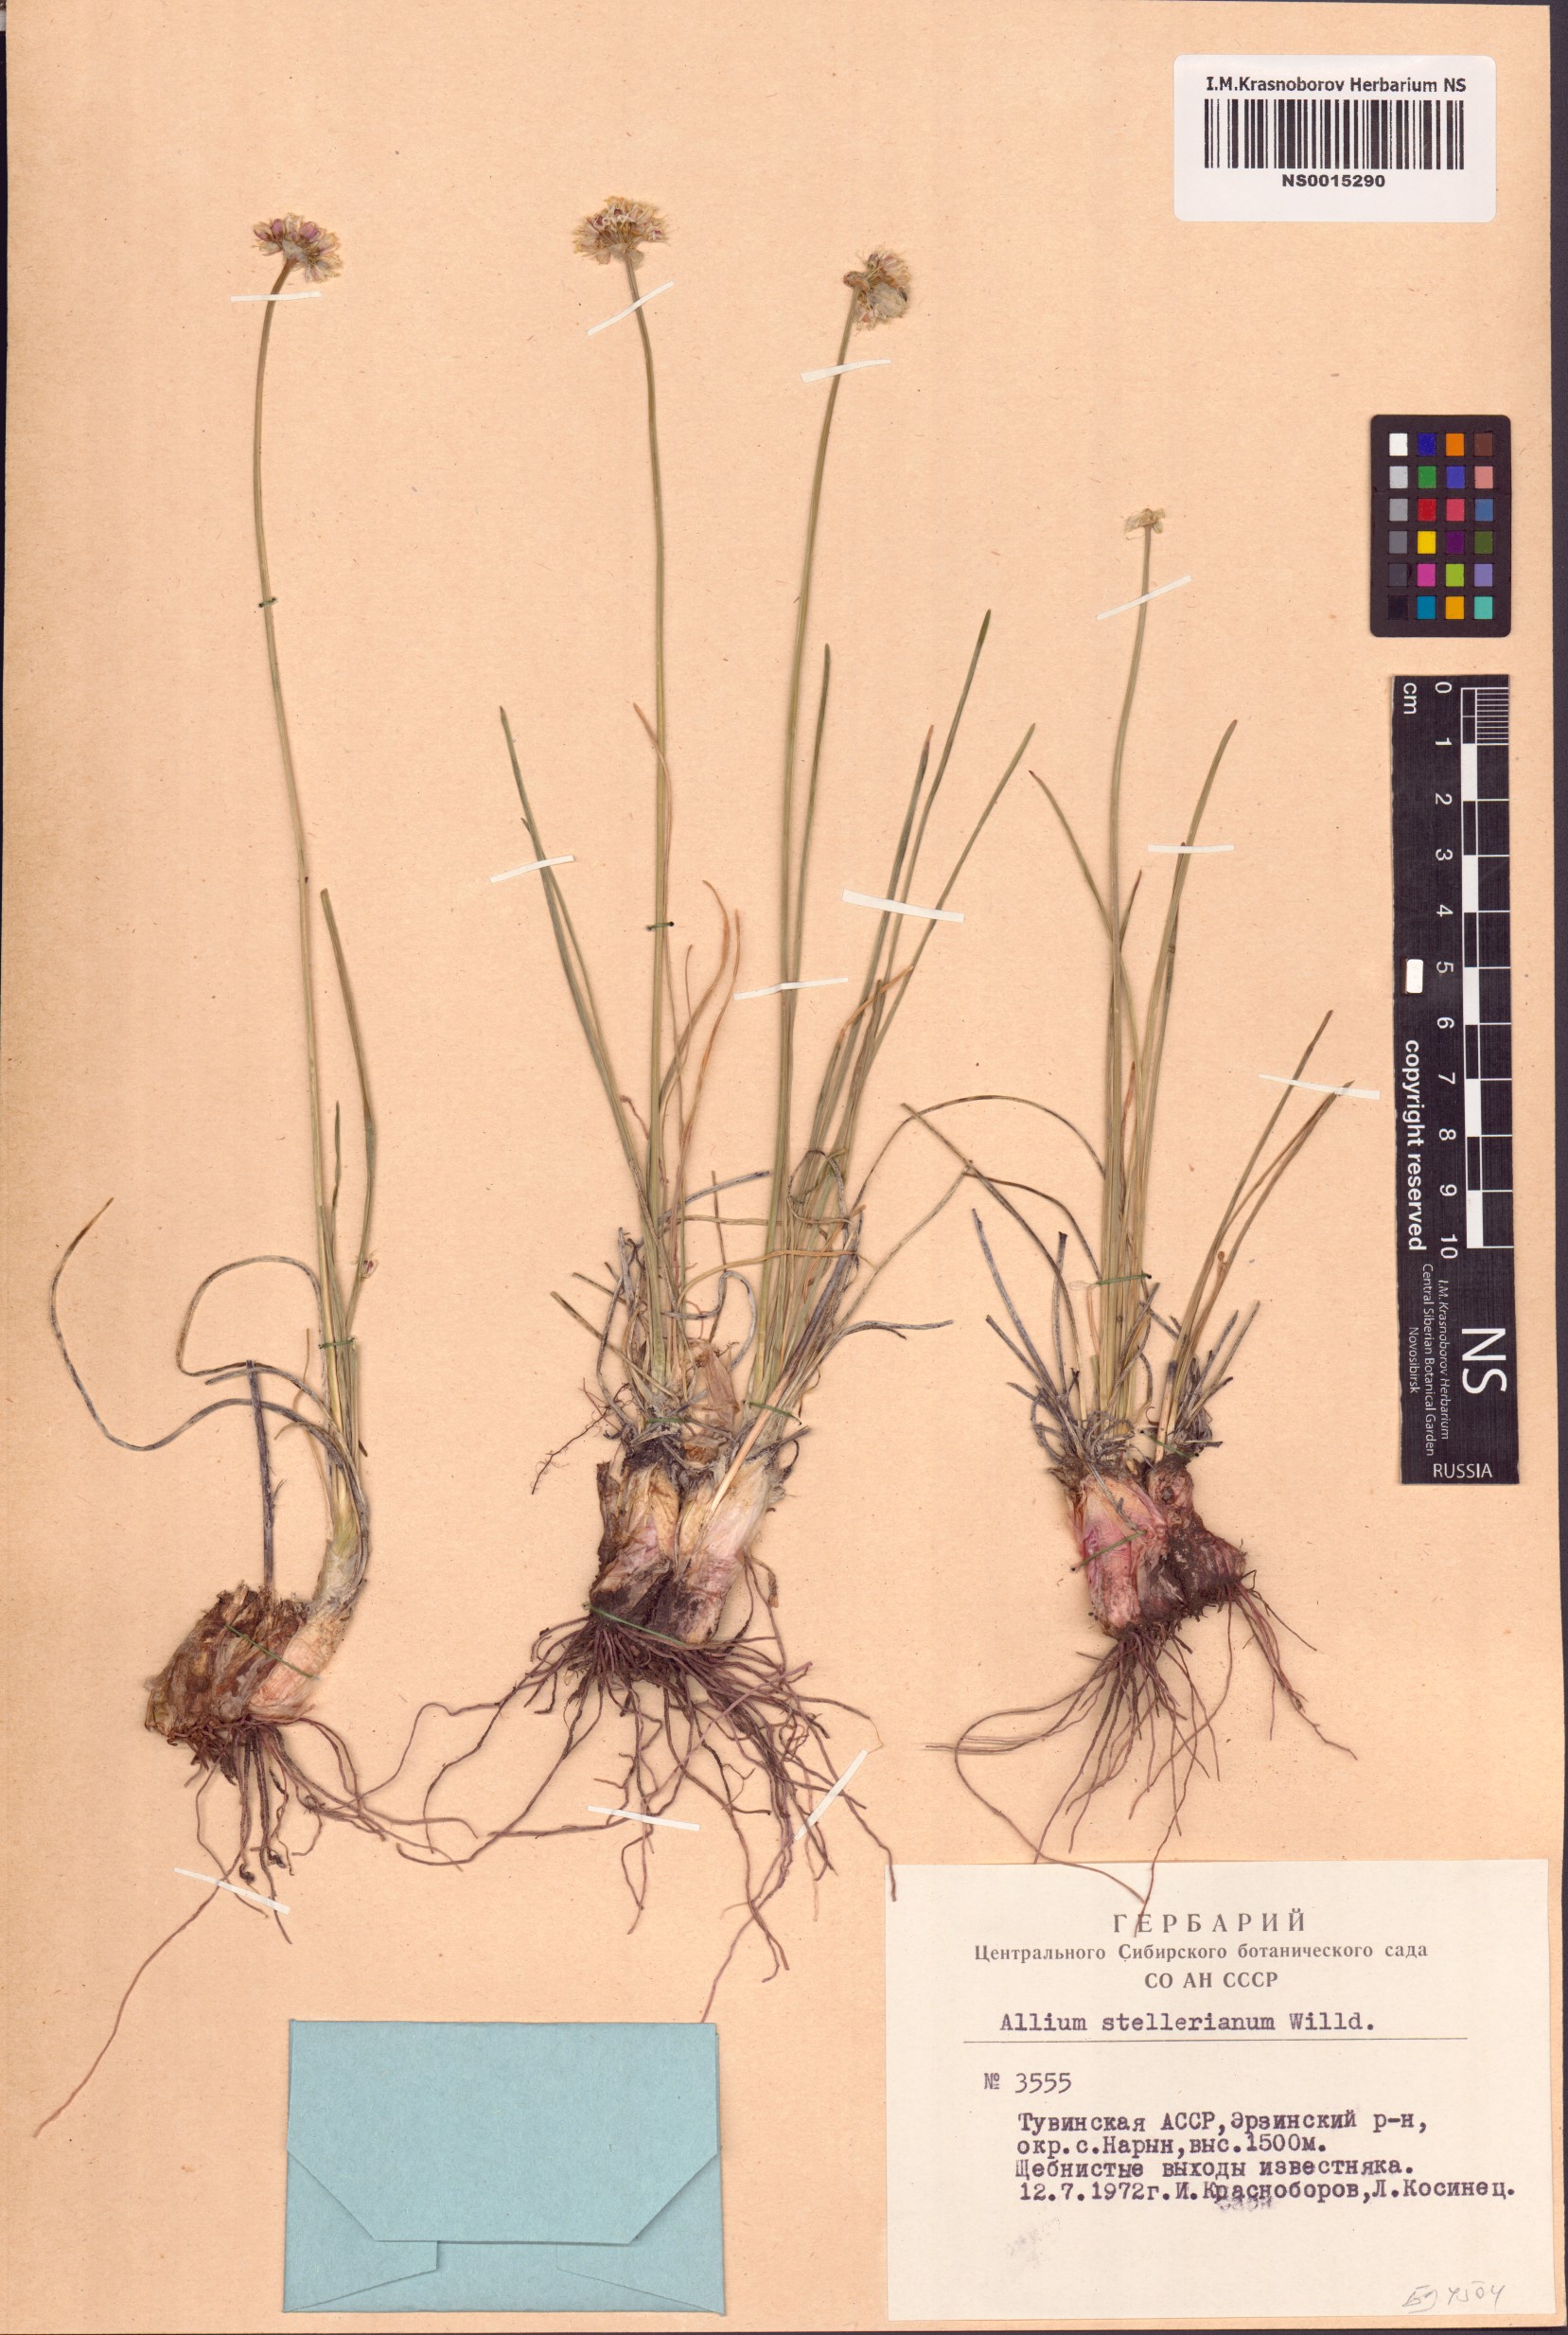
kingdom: Plantae
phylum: Tracheophyta
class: Liliopsida
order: Asparagales
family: Amaryllidaceae
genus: Allium
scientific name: Allium stellerianum
